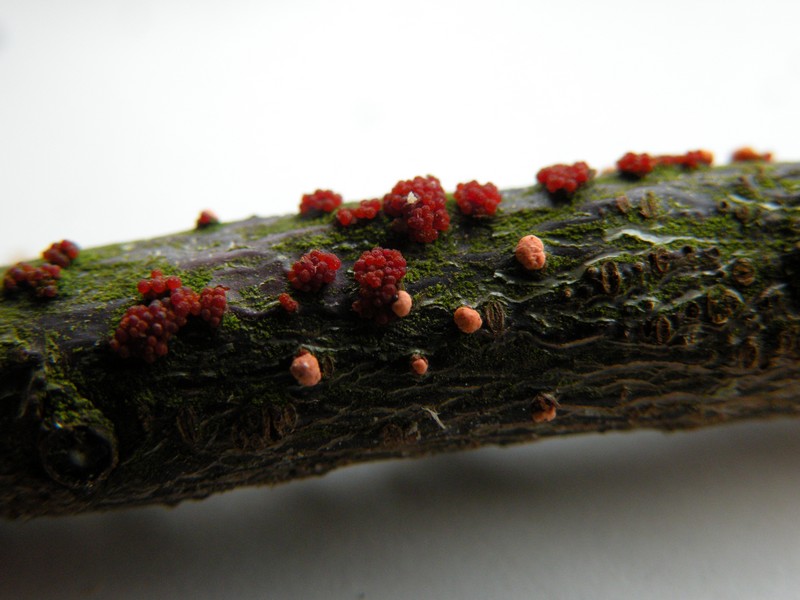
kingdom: Fungi
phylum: Ascomycota
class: Sordariomycetes
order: Hypocreales
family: Nectriaceae
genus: Nectria
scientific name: Nectria cinnabarina
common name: almindelig cinnobersvamp
